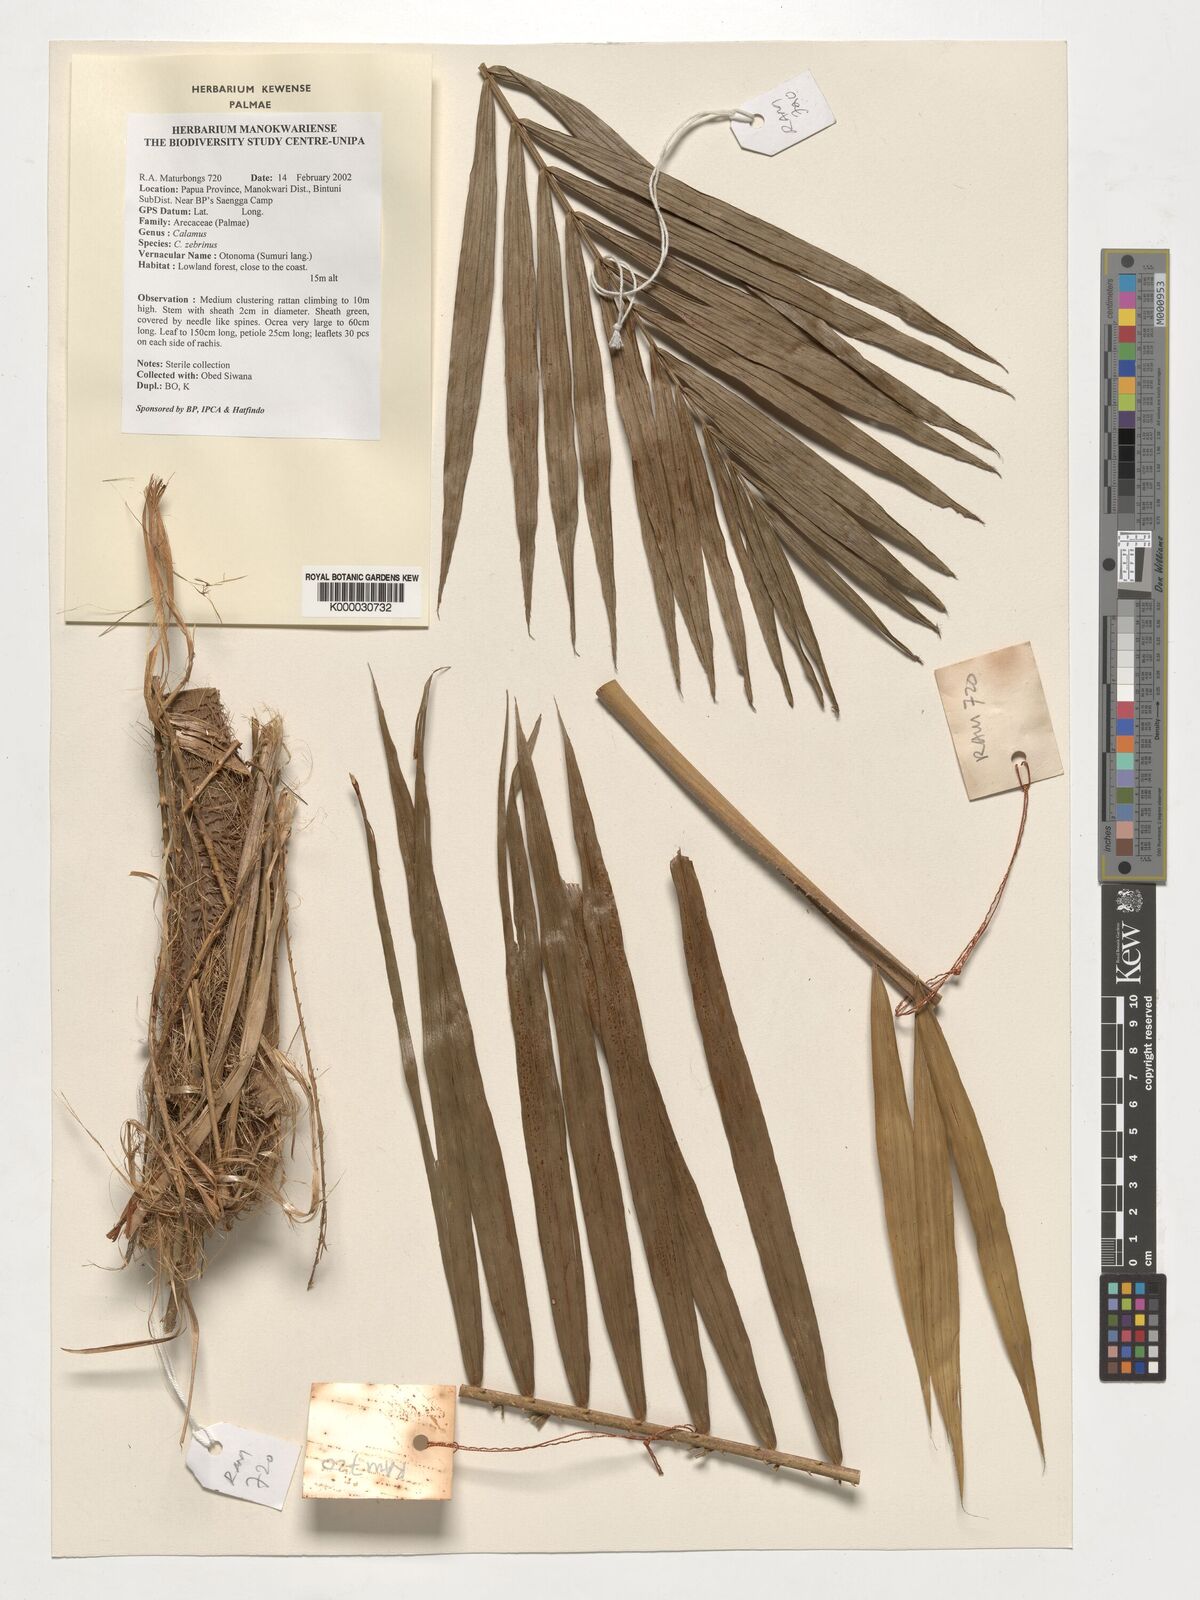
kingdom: Plantae
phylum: Tracheophyta
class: Liliopsida
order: Arecales
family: Arecaceae
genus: Calamus
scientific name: Calamus zebrinus
